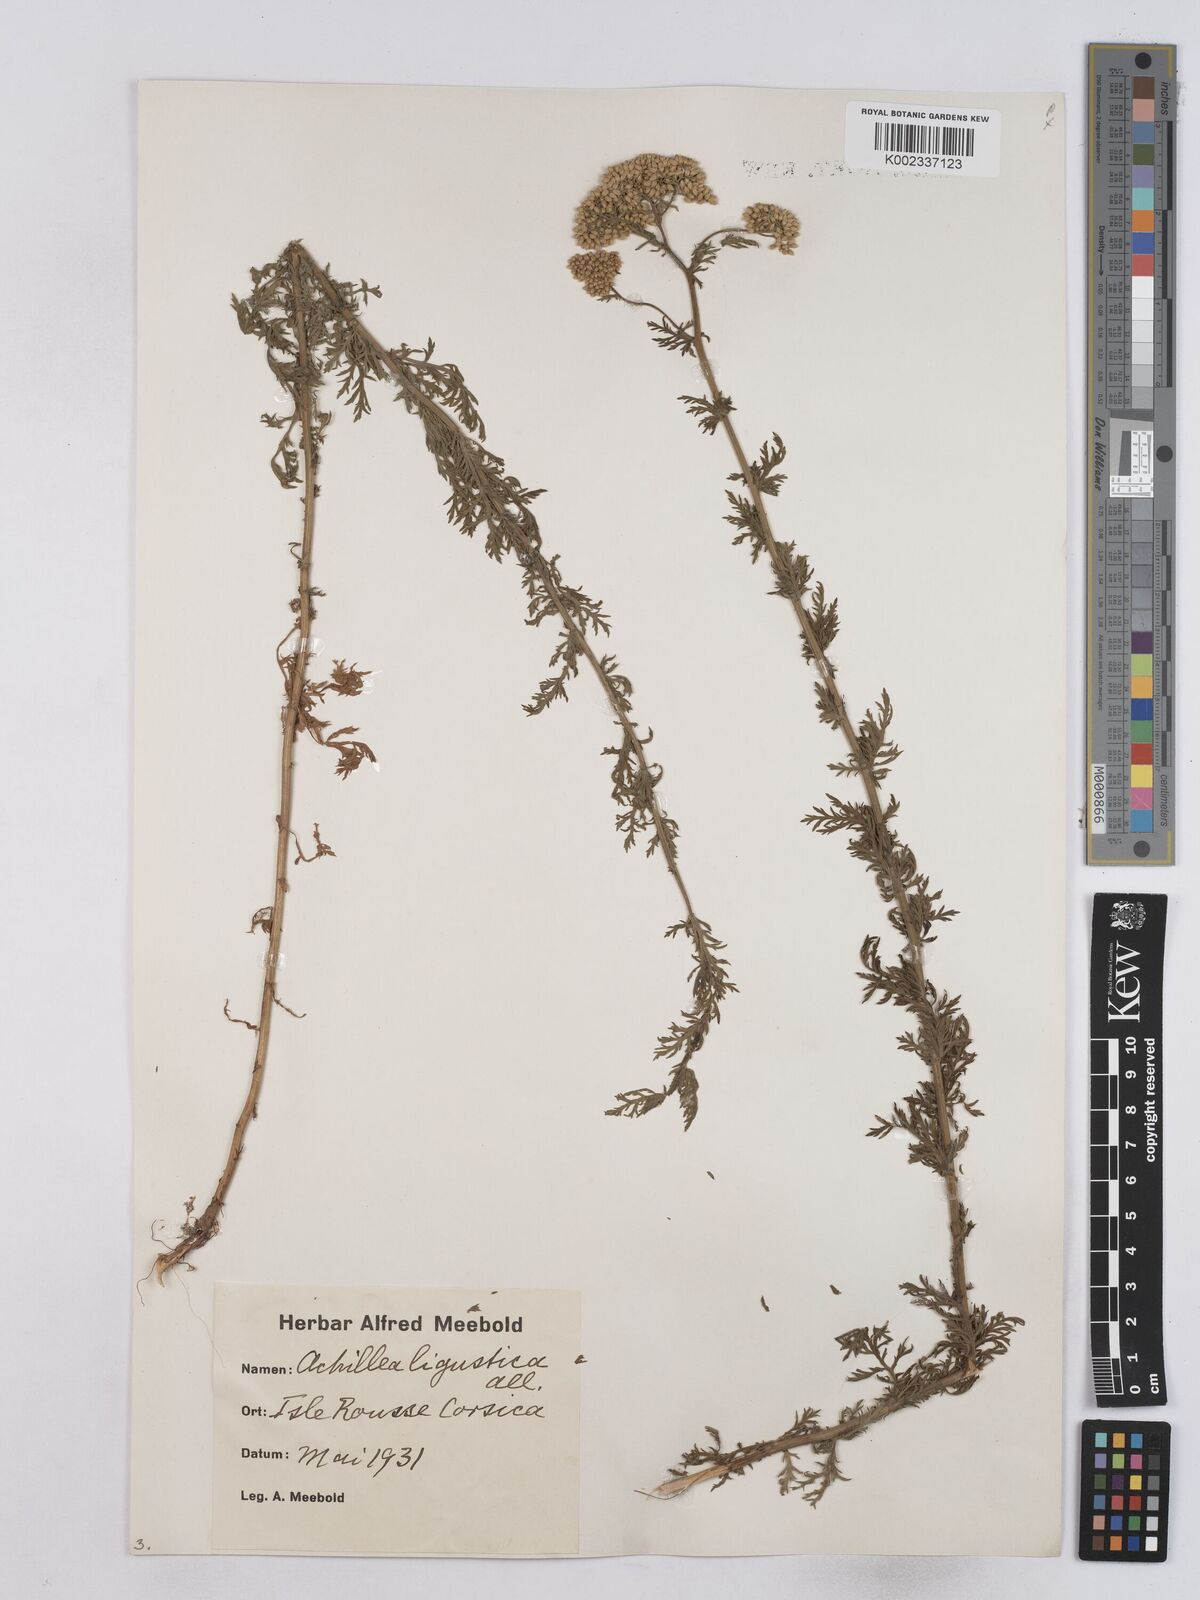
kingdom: Plantae
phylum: Tracheophyta
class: Magnoliopsida
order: Asterales
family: Asteraceae
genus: Achillea
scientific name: Achillea ligustica
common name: Southern yarrow
